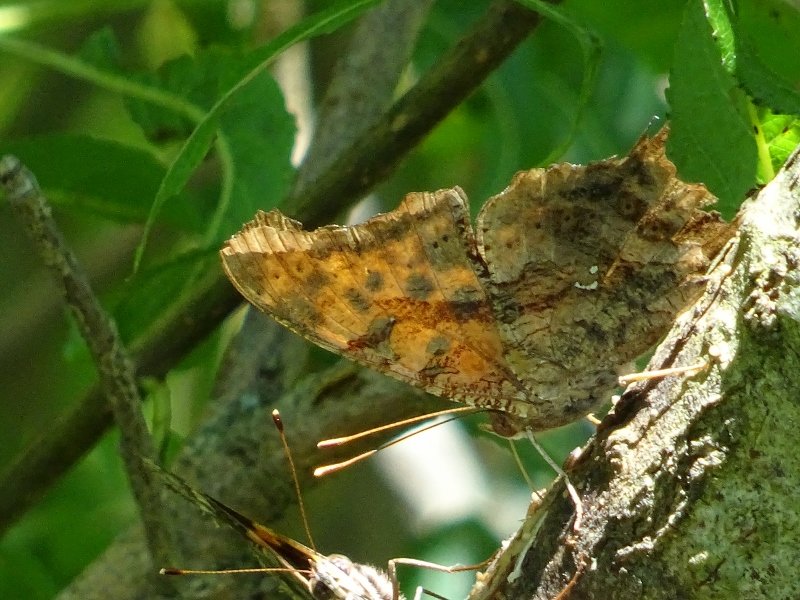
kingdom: Animalia
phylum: Arthropoda
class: Insecta
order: Lepidoptera
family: Nymphalidae
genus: Polygonia
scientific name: Polygonia interrogationis
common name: Question Mark
